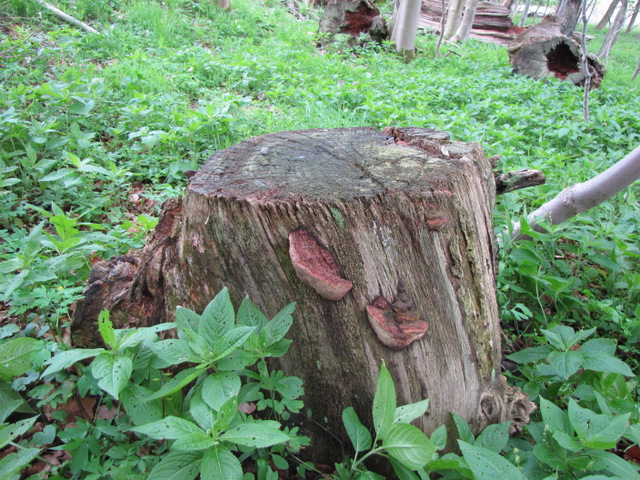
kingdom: Fungi
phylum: Basidiomycota
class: Agaricomycetes
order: Polyporales
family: Fomitopsidaceae
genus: Daedalea
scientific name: Daedalea quercina
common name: ege-labyrintsvamp
